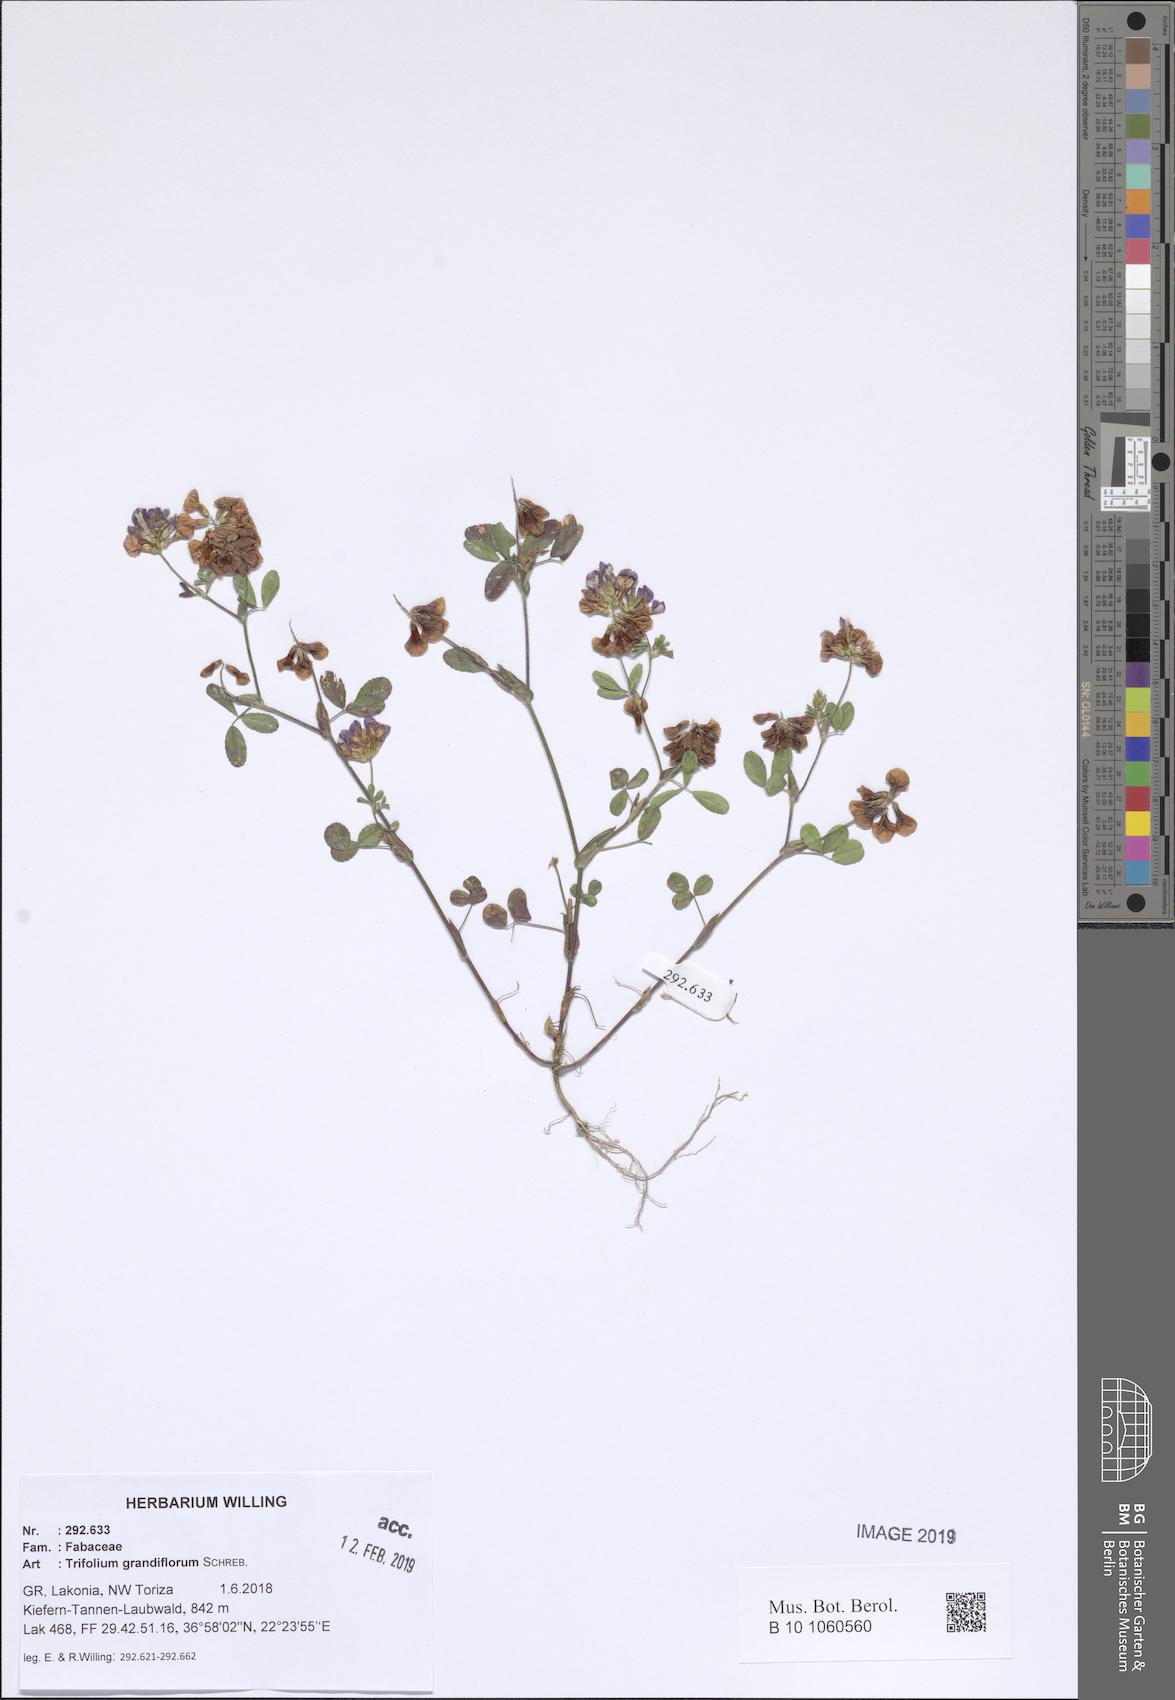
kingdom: Plantae
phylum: Tracheophyta
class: Magnoliopsida
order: Fabales
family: Fabaceae
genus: Trifolium
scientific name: Trifolium grandiflorum
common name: Large-flower hop clover
